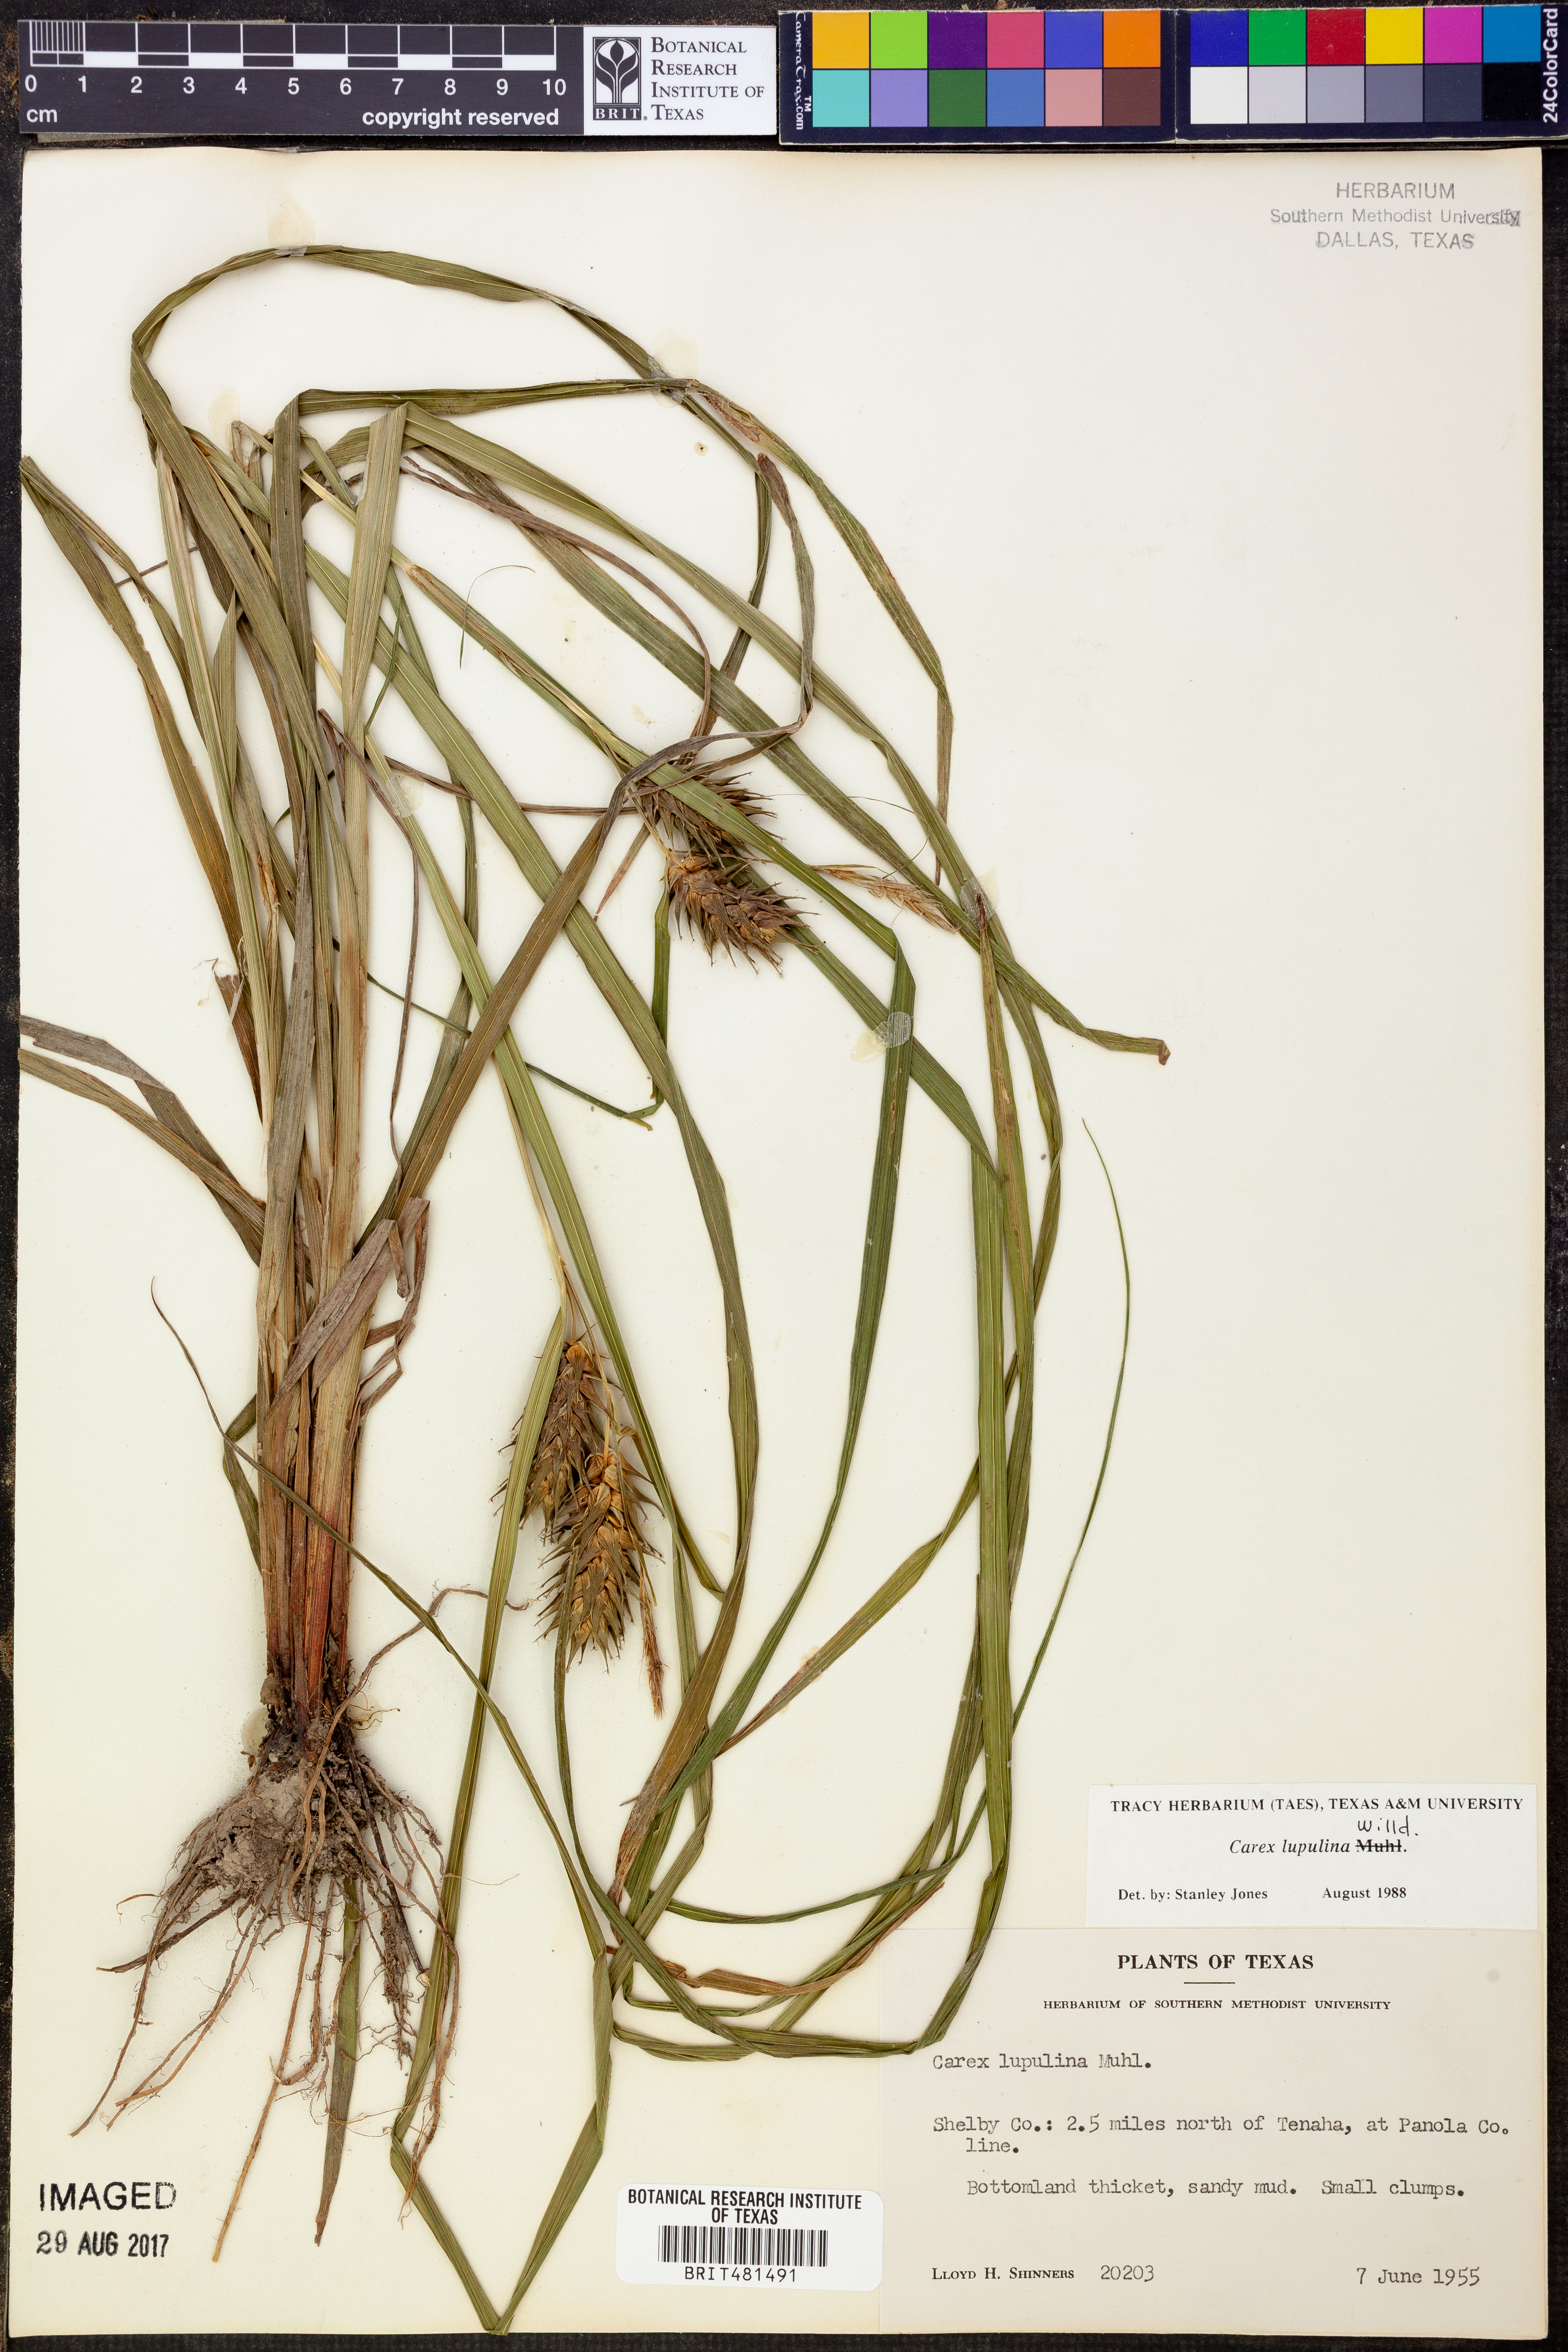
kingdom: Plantae
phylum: Tracheophyta
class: Liliopsida
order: Poales
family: Cyperaceae
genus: Carex
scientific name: Carex lupulina
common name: Hop sedge
